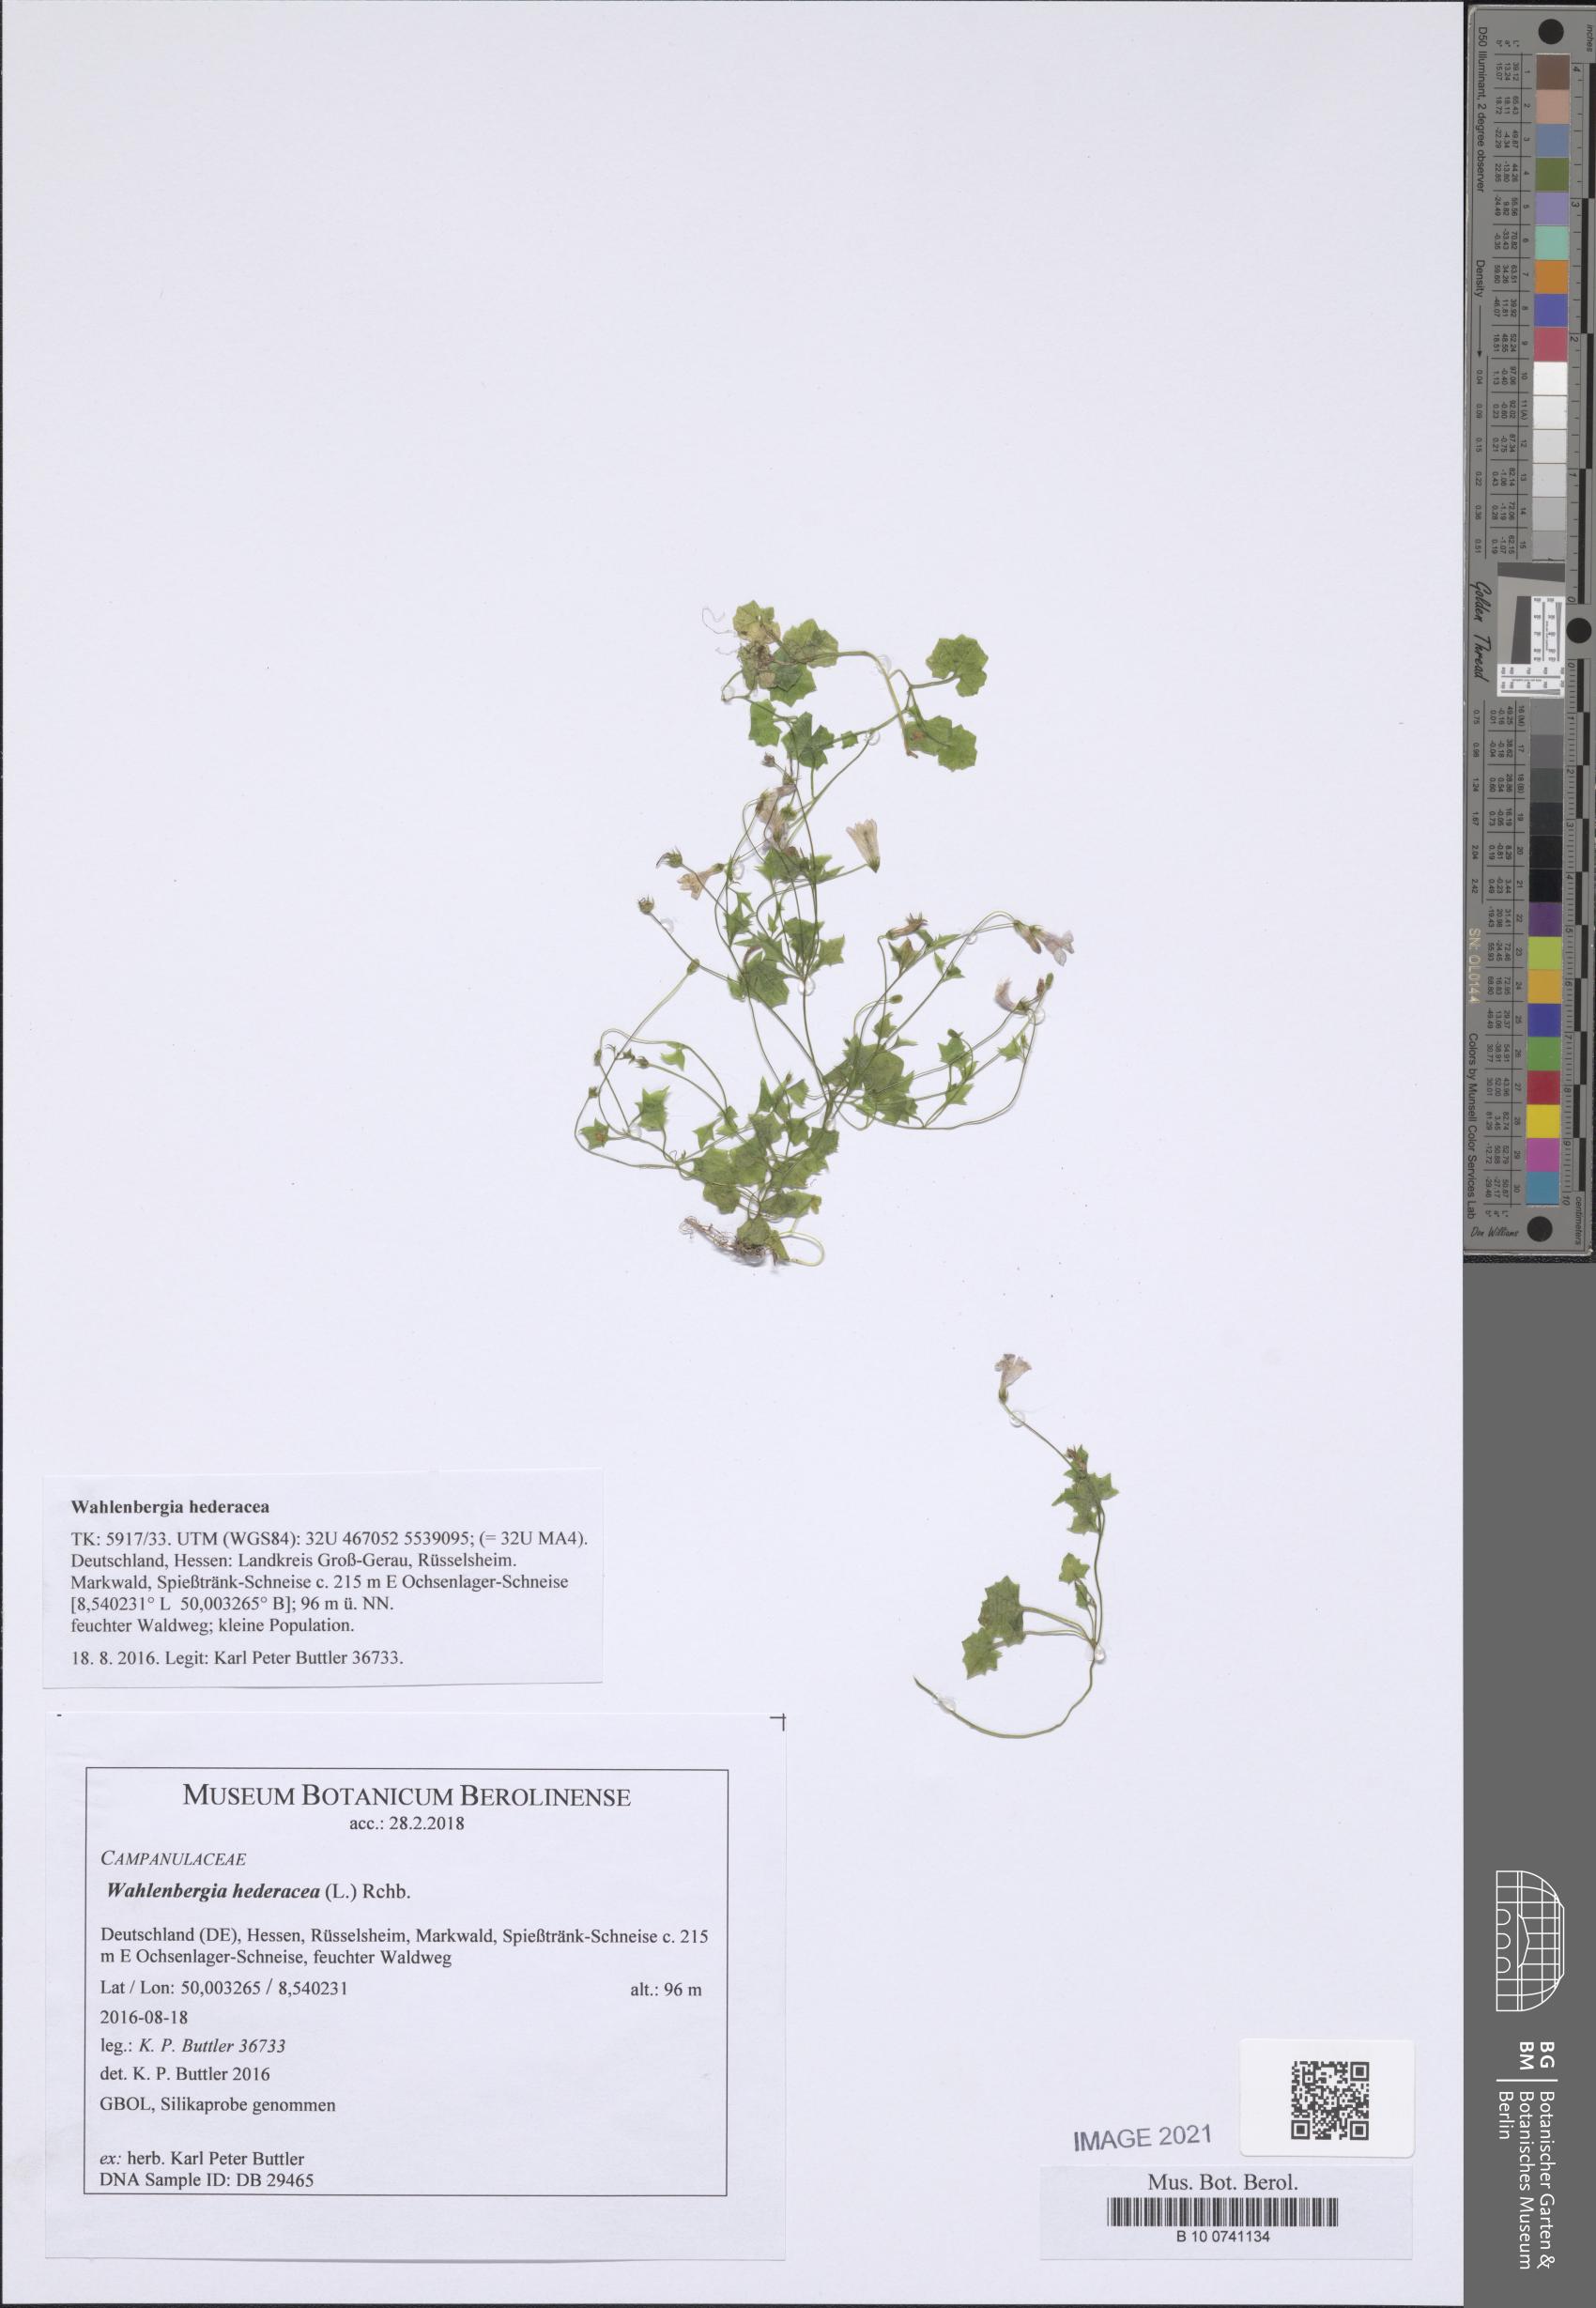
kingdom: Plantae
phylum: Tracheophyta
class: Magnoliopsida
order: Asterales
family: Campanulaceae
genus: Hesperocodon
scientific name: Hesperocodon hederaceus
